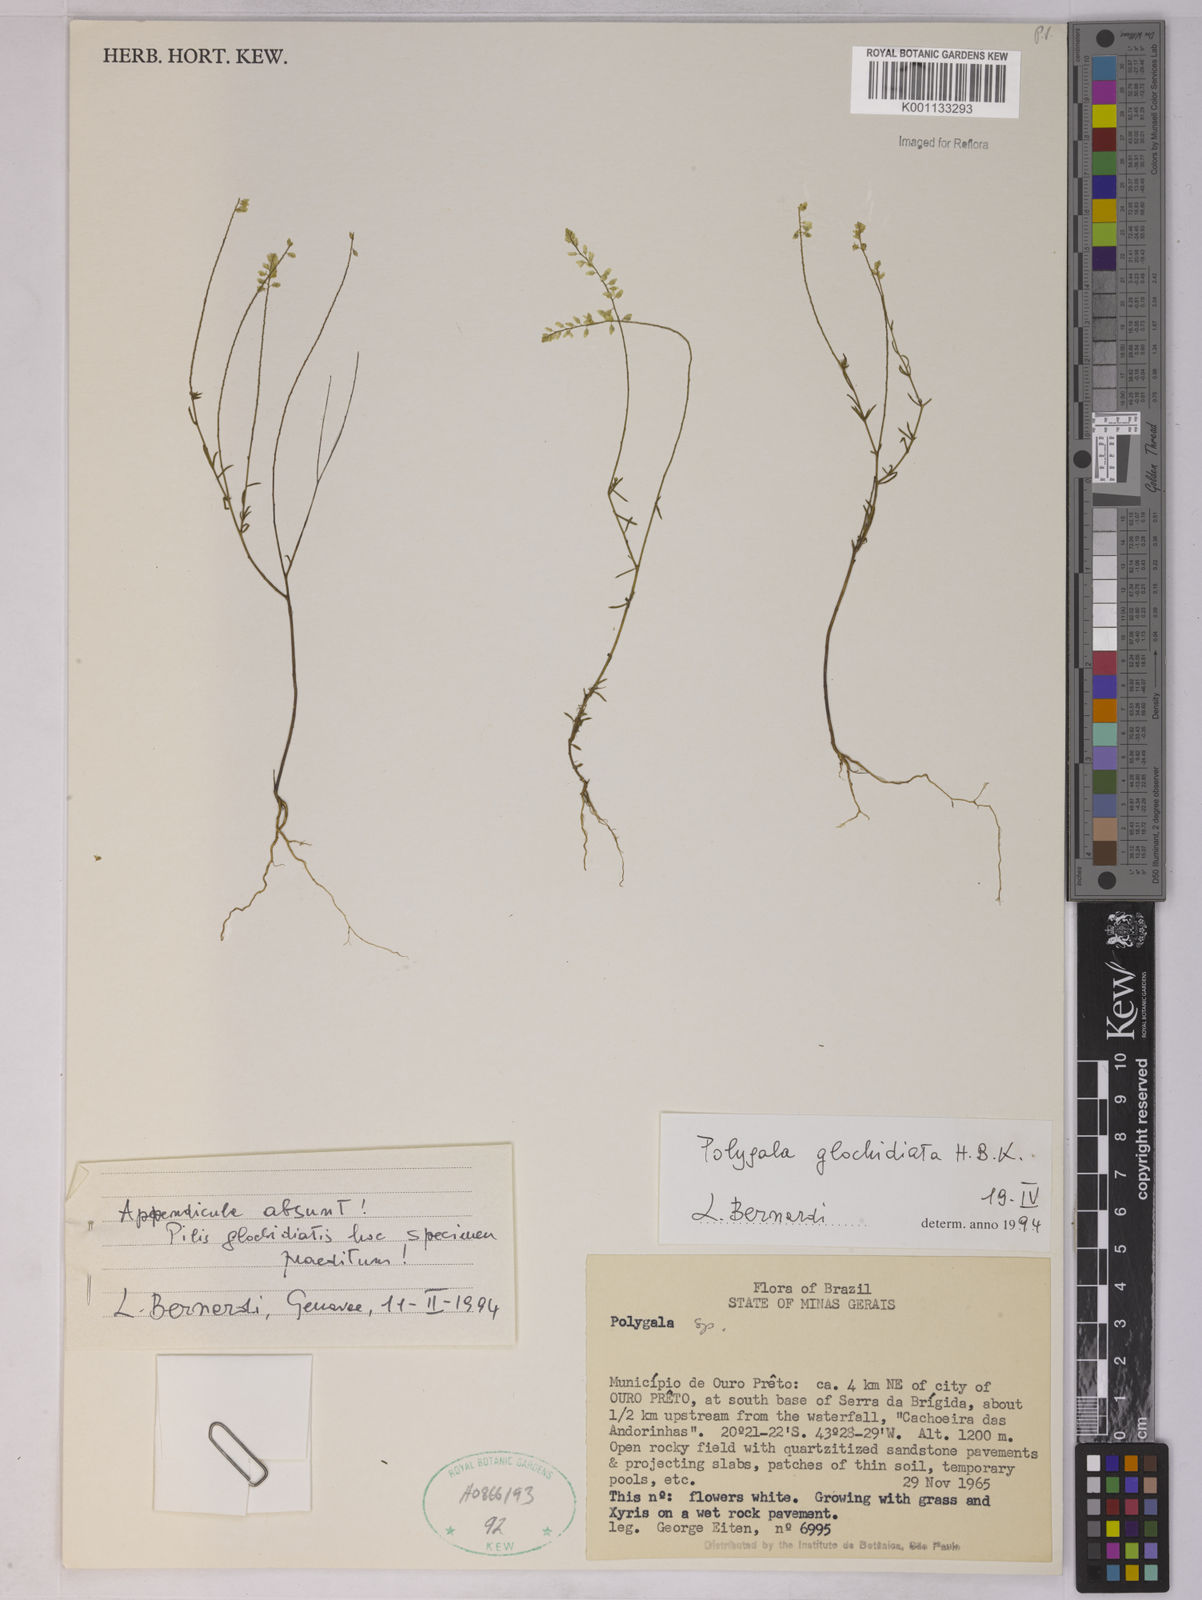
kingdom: Plantae
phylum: Tracheophyta
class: Magnoliopsida
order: Fabales
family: Polygalaceae
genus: Polygala
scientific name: Polygala glochidiata
